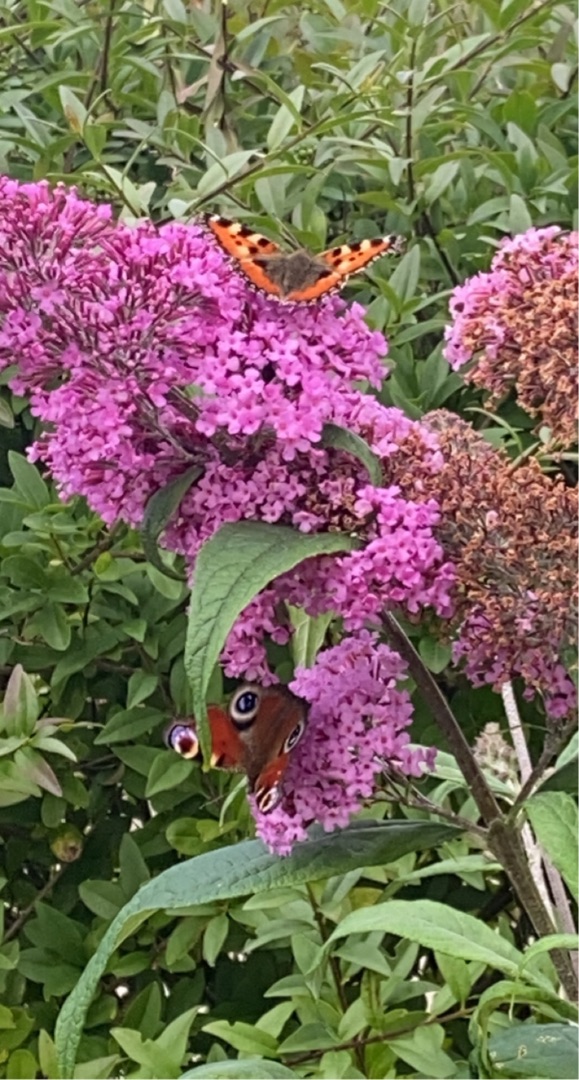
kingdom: Animalia
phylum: Arthropoda
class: Insecta
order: Lepidoptera
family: Nymphalidae
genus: Aglais
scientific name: Aglais io
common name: Dagpåfugleøje
